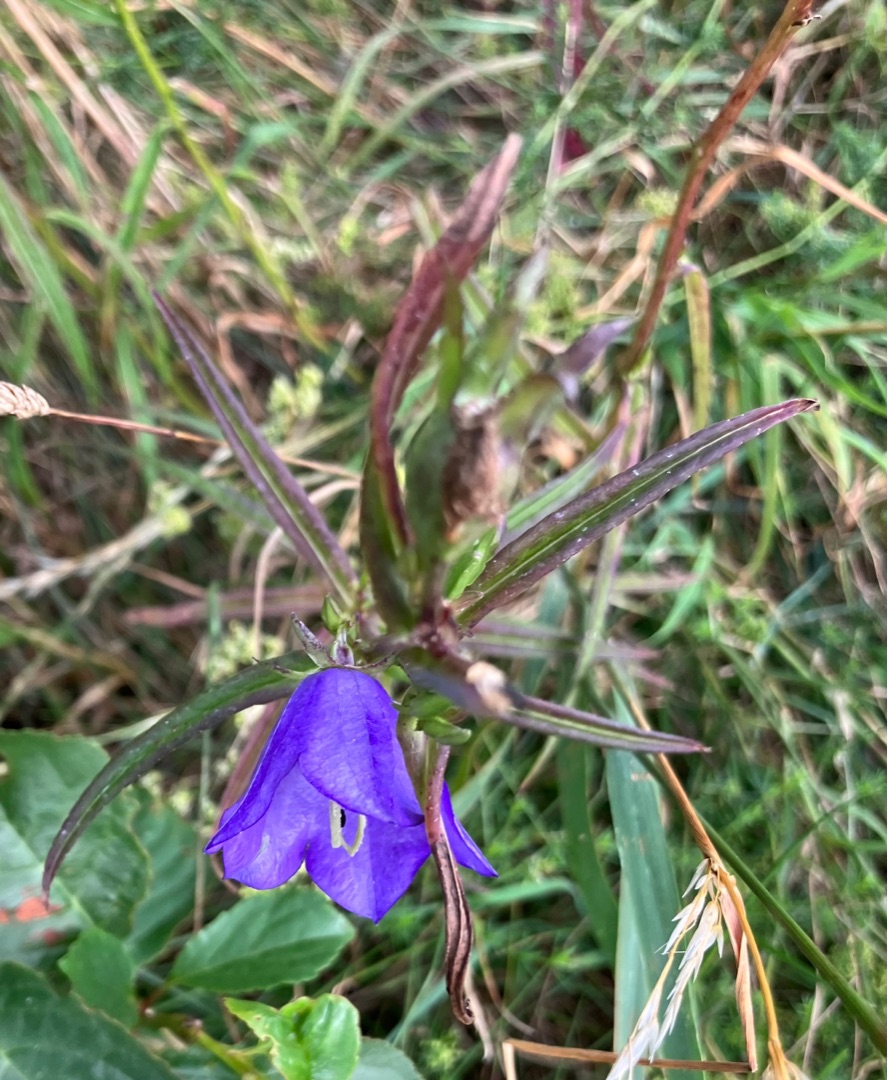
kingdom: Plantae
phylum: Tracheophyta
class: Magnoliopsida
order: Asterales
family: Campanulaceae
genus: Campanula
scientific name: Campanula persicifolia
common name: Smalbladet klokke
